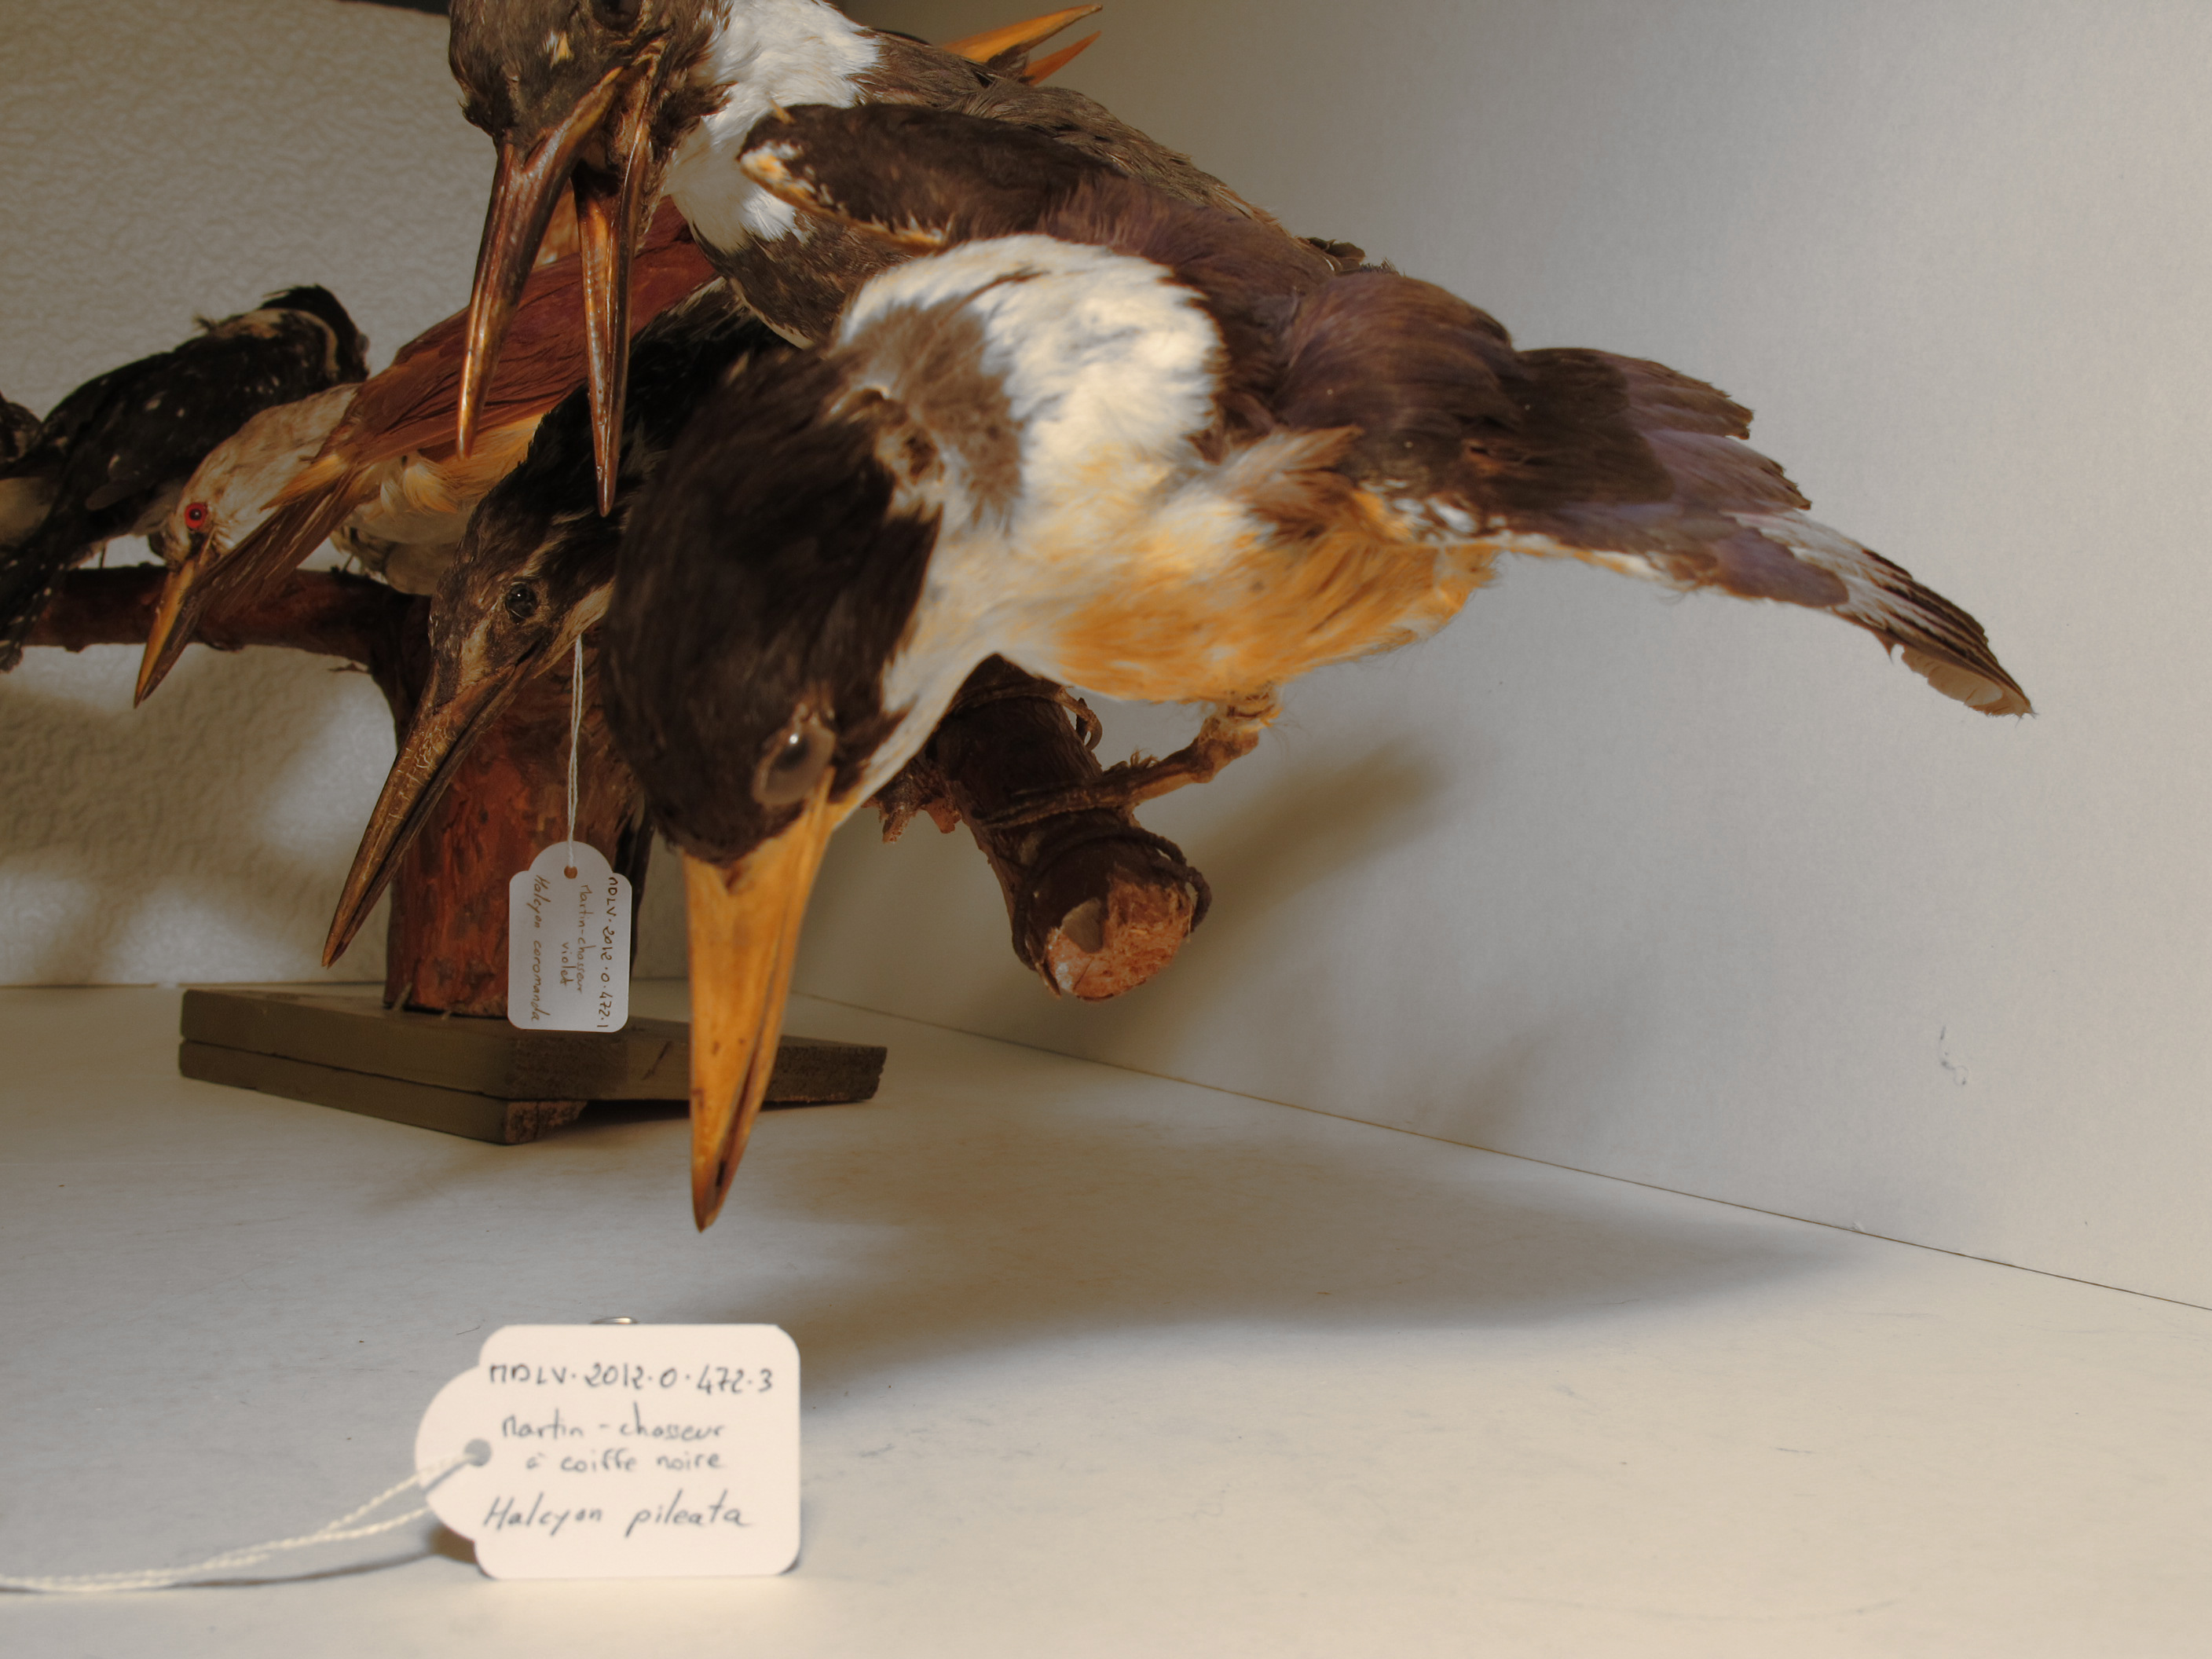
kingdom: Animalia
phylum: Chordata
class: Aves
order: Coraciiformes
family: Alcedinidae
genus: Halcyon
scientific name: Halcyon pileata
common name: Black-capped Kingfisher
